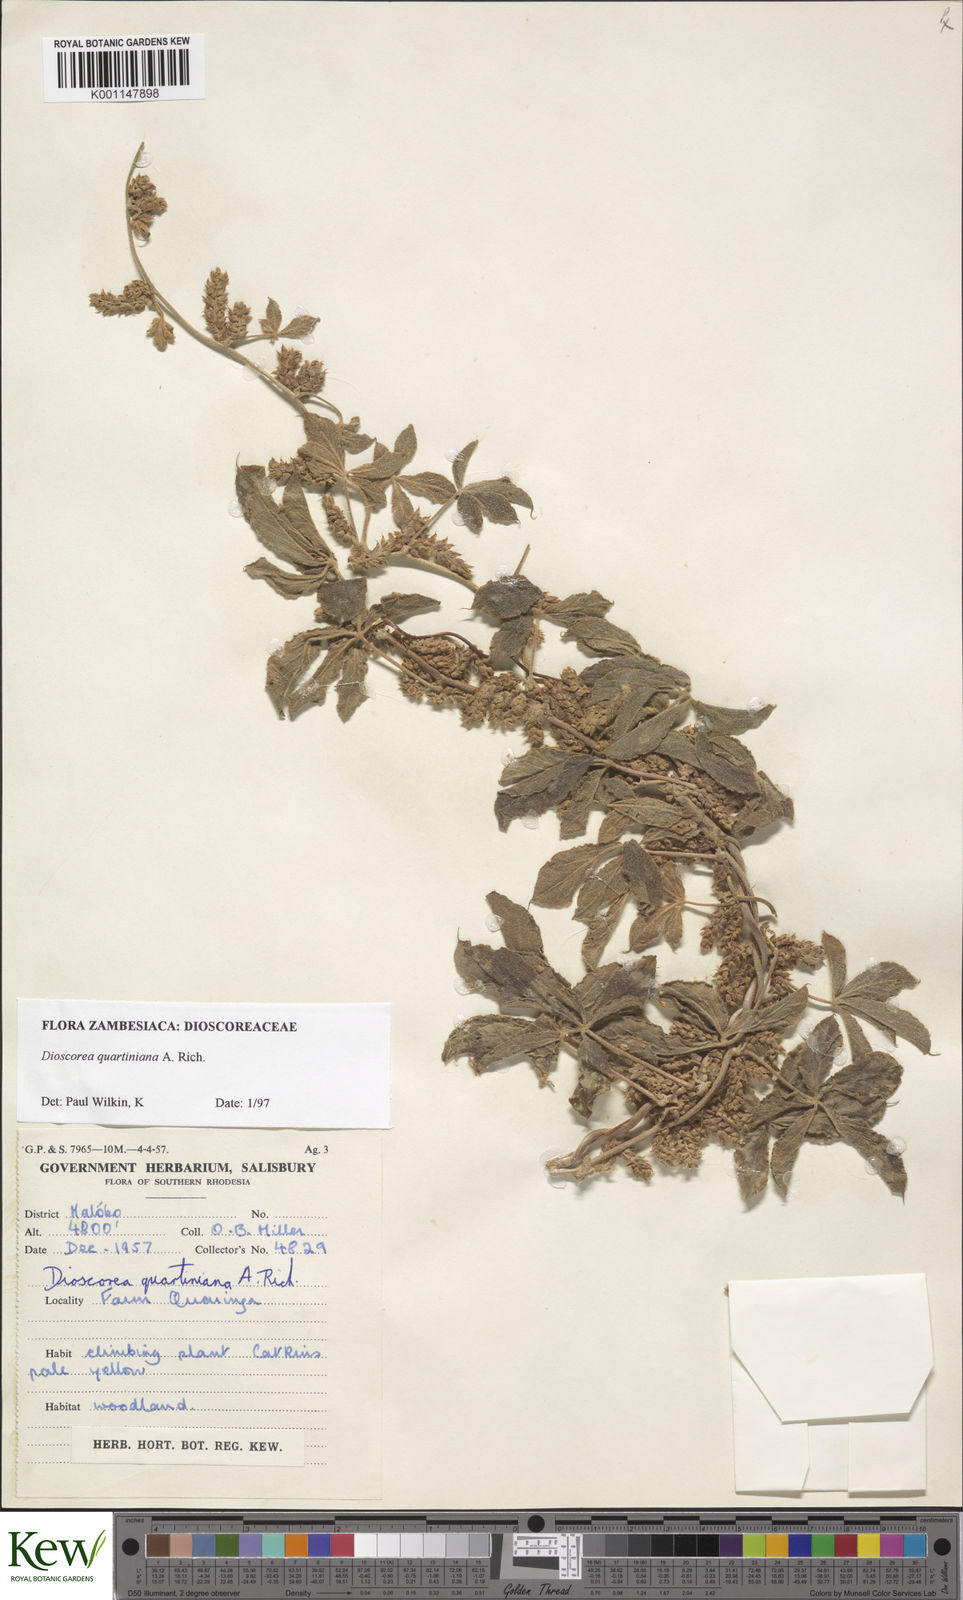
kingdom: Plantae
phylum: Tracheophyta
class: Liliopsida
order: Dioscoreales
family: Dioscoreaceae
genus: Dioscorea
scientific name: Dioscorea quartiniana
